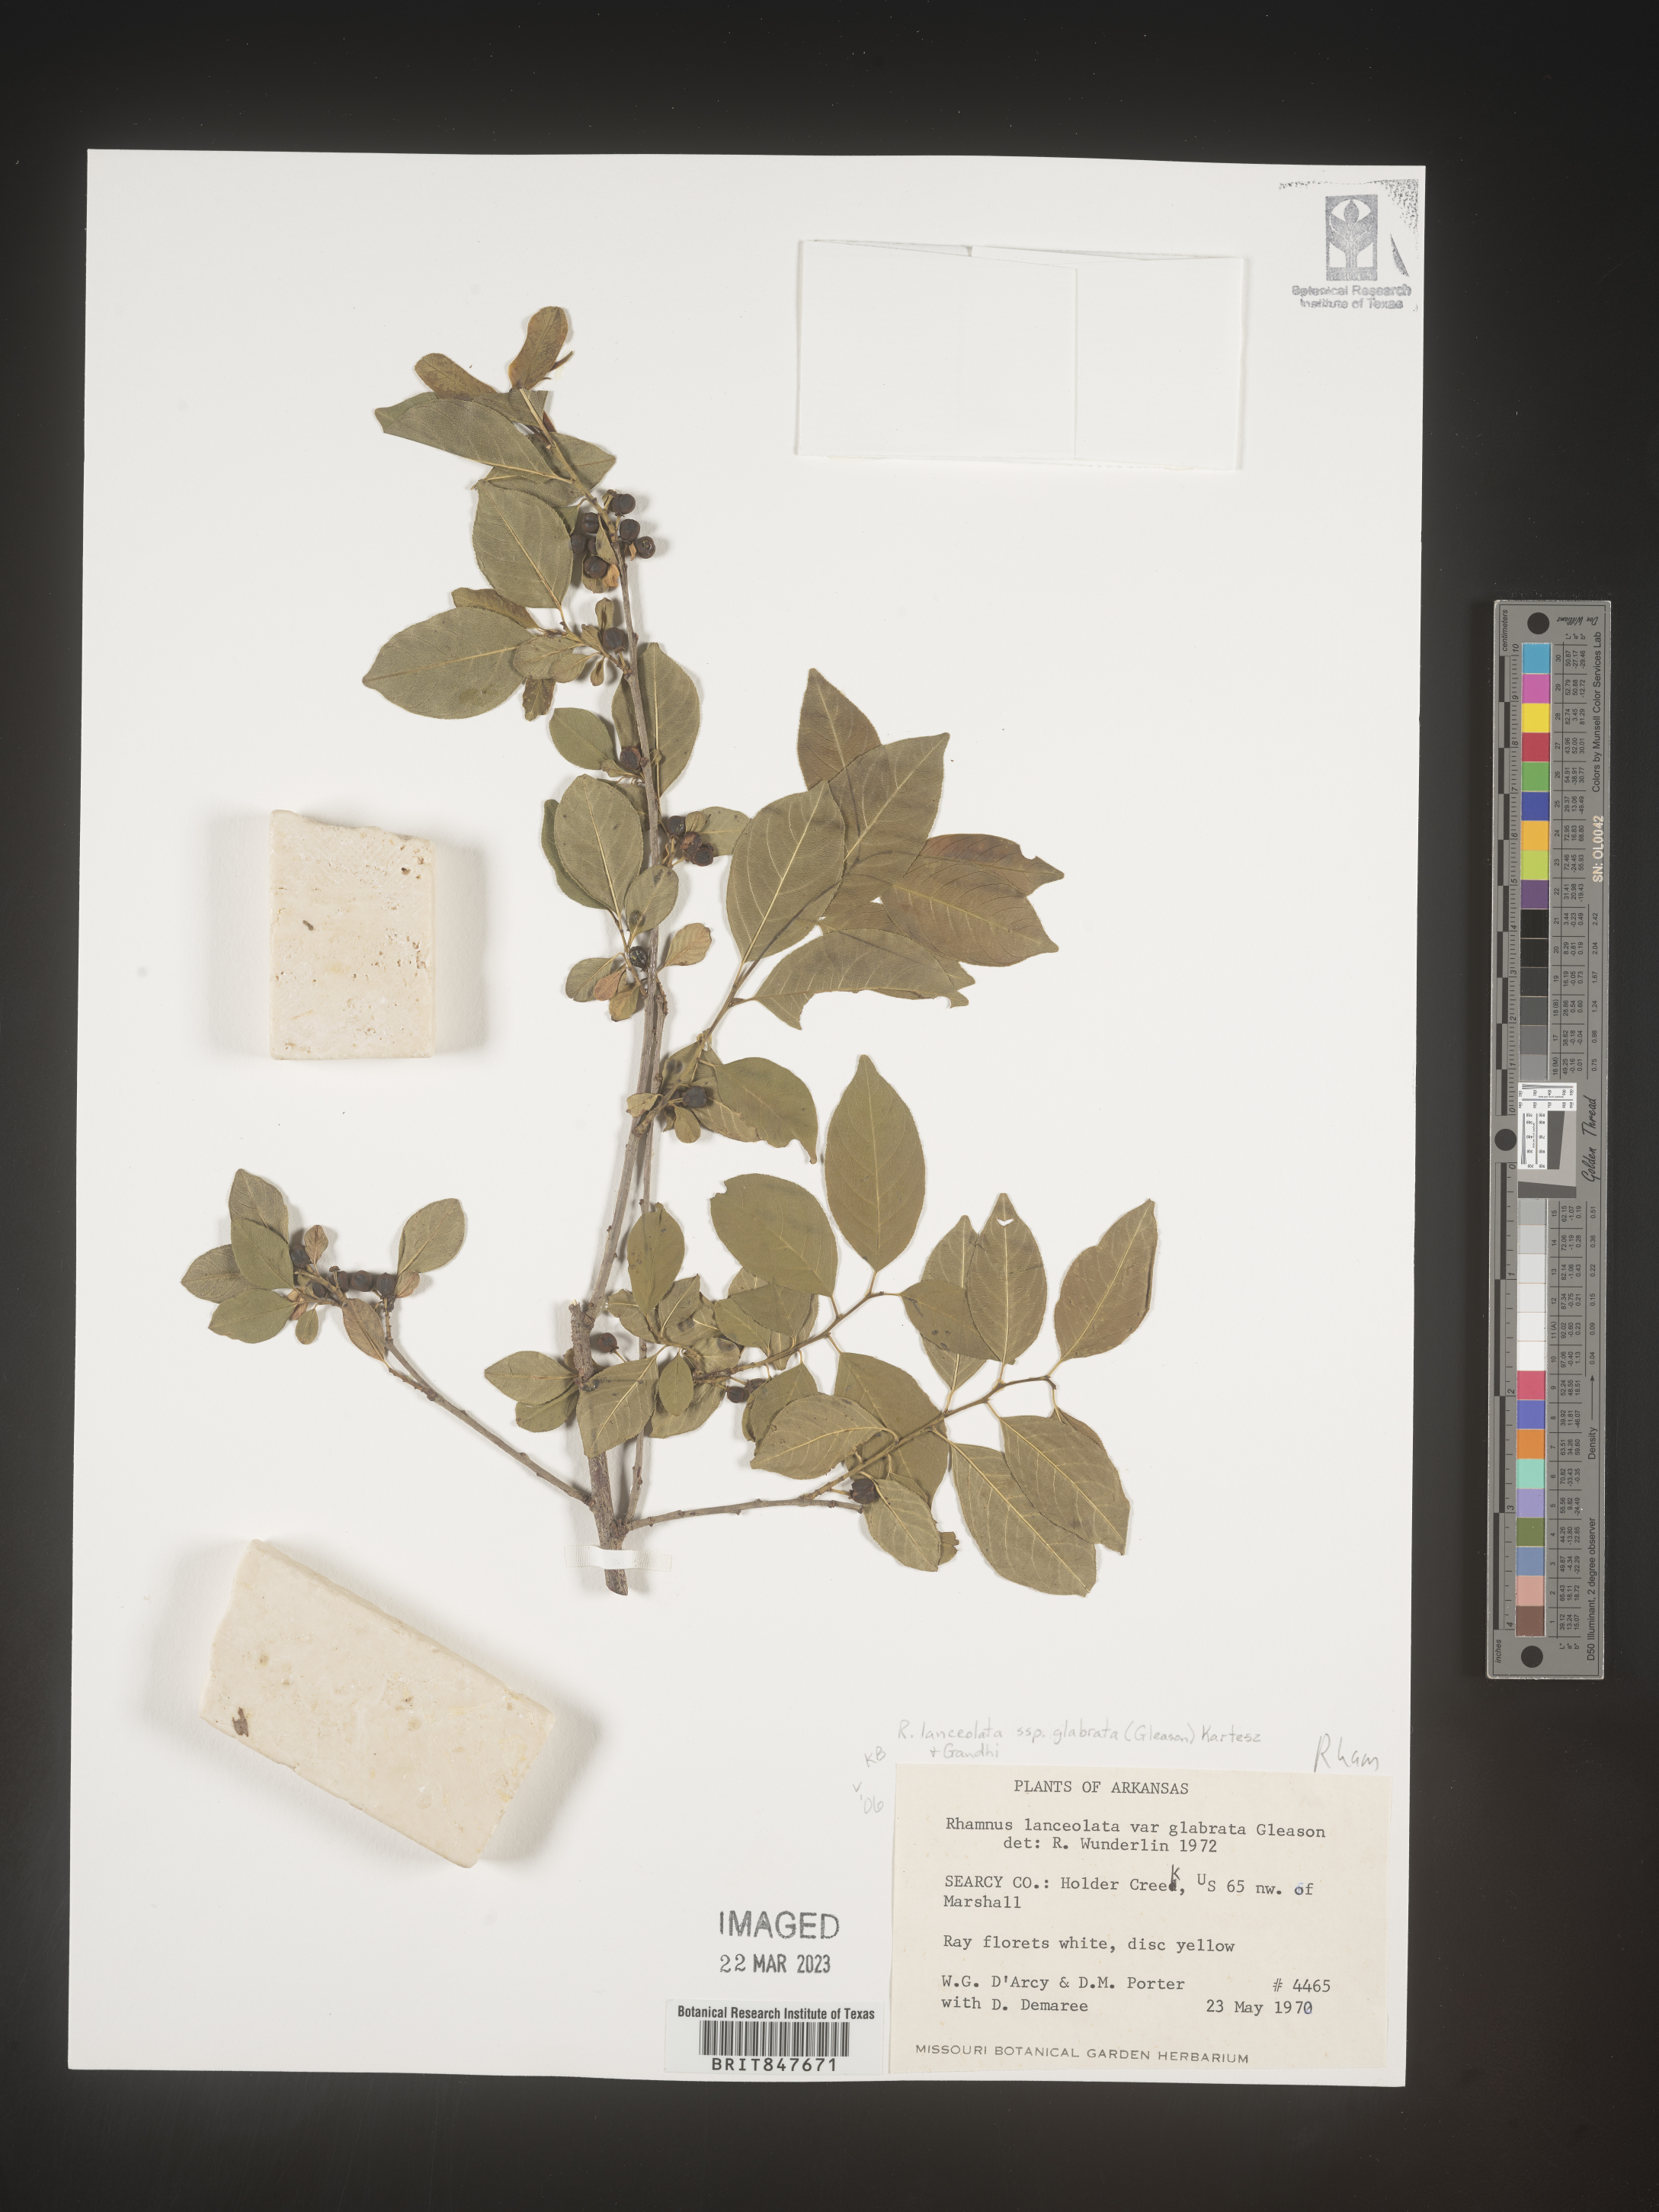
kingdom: Plantae
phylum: Tracheophyta
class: Magnoliopsida
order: Rosales
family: Rhamnaceae
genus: Endotropis
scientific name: Endotropis lanceolata
